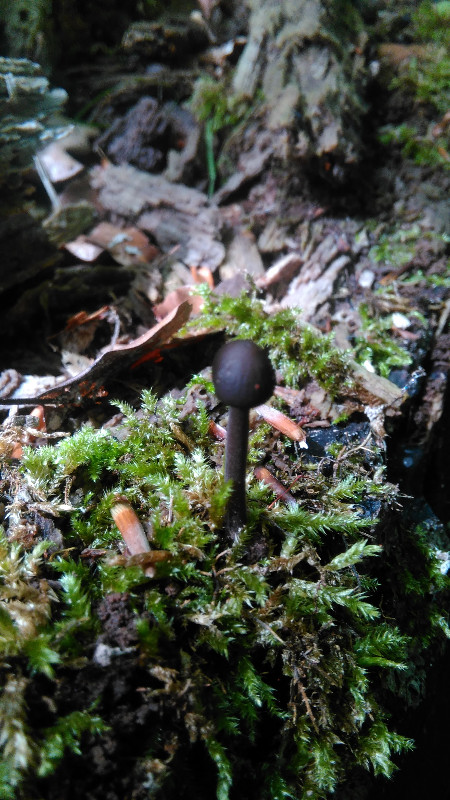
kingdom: Fungi
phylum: Basidiomycota
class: Agaricomycetes
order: Agaricales
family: Omphalotaceae
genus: Mycetinis
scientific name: Mycetinis alliaceus
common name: stor løghat
